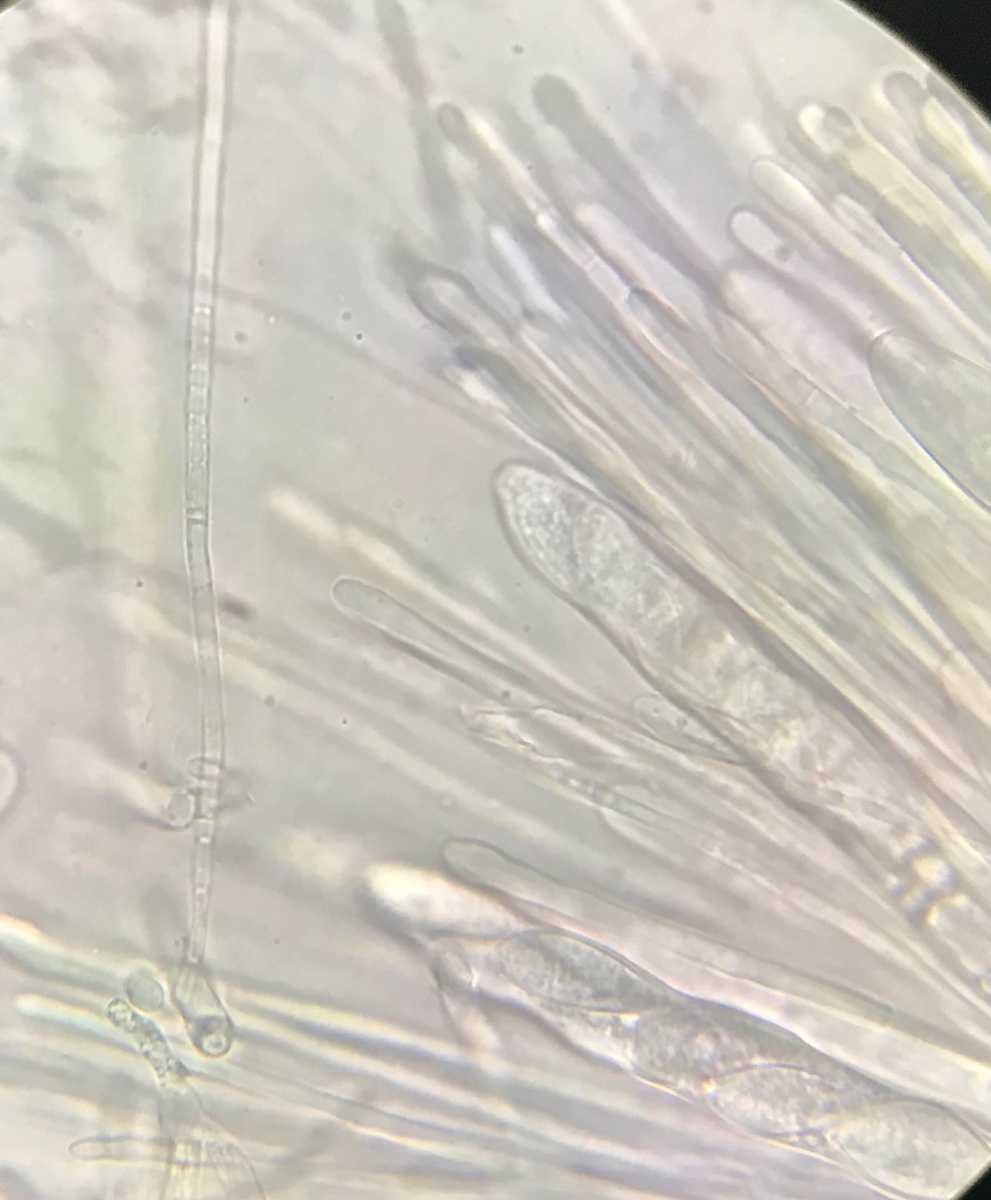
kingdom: Fungi
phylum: Ascomycota
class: Leotiomycetes
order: Helotiales
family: Lachnaceae
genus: Lachnellula
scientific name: Lachnellula occidentalis
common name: Larch disco
